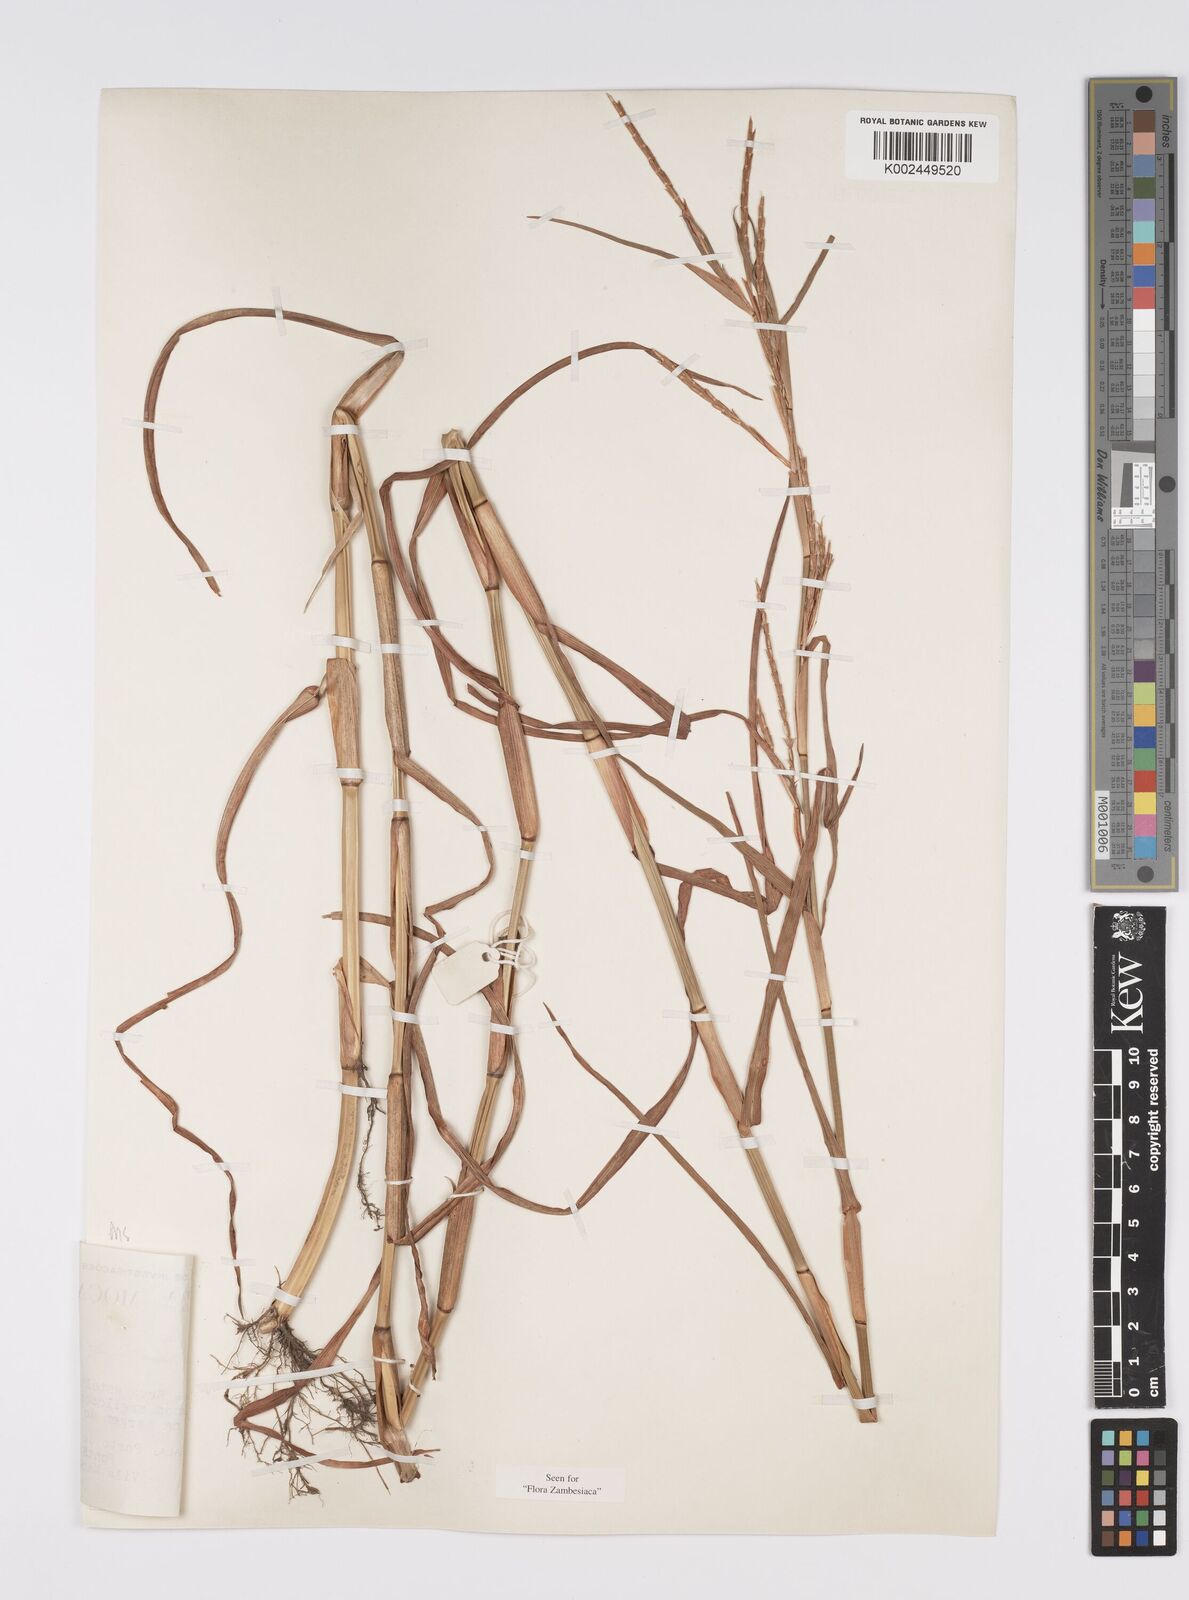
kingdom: Plantae
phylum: Tracheophyta
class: Liliopsida
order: Poales
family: Poaceae
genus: Hemarthria
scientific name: Hemarthria altissima
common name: African jointgrass
